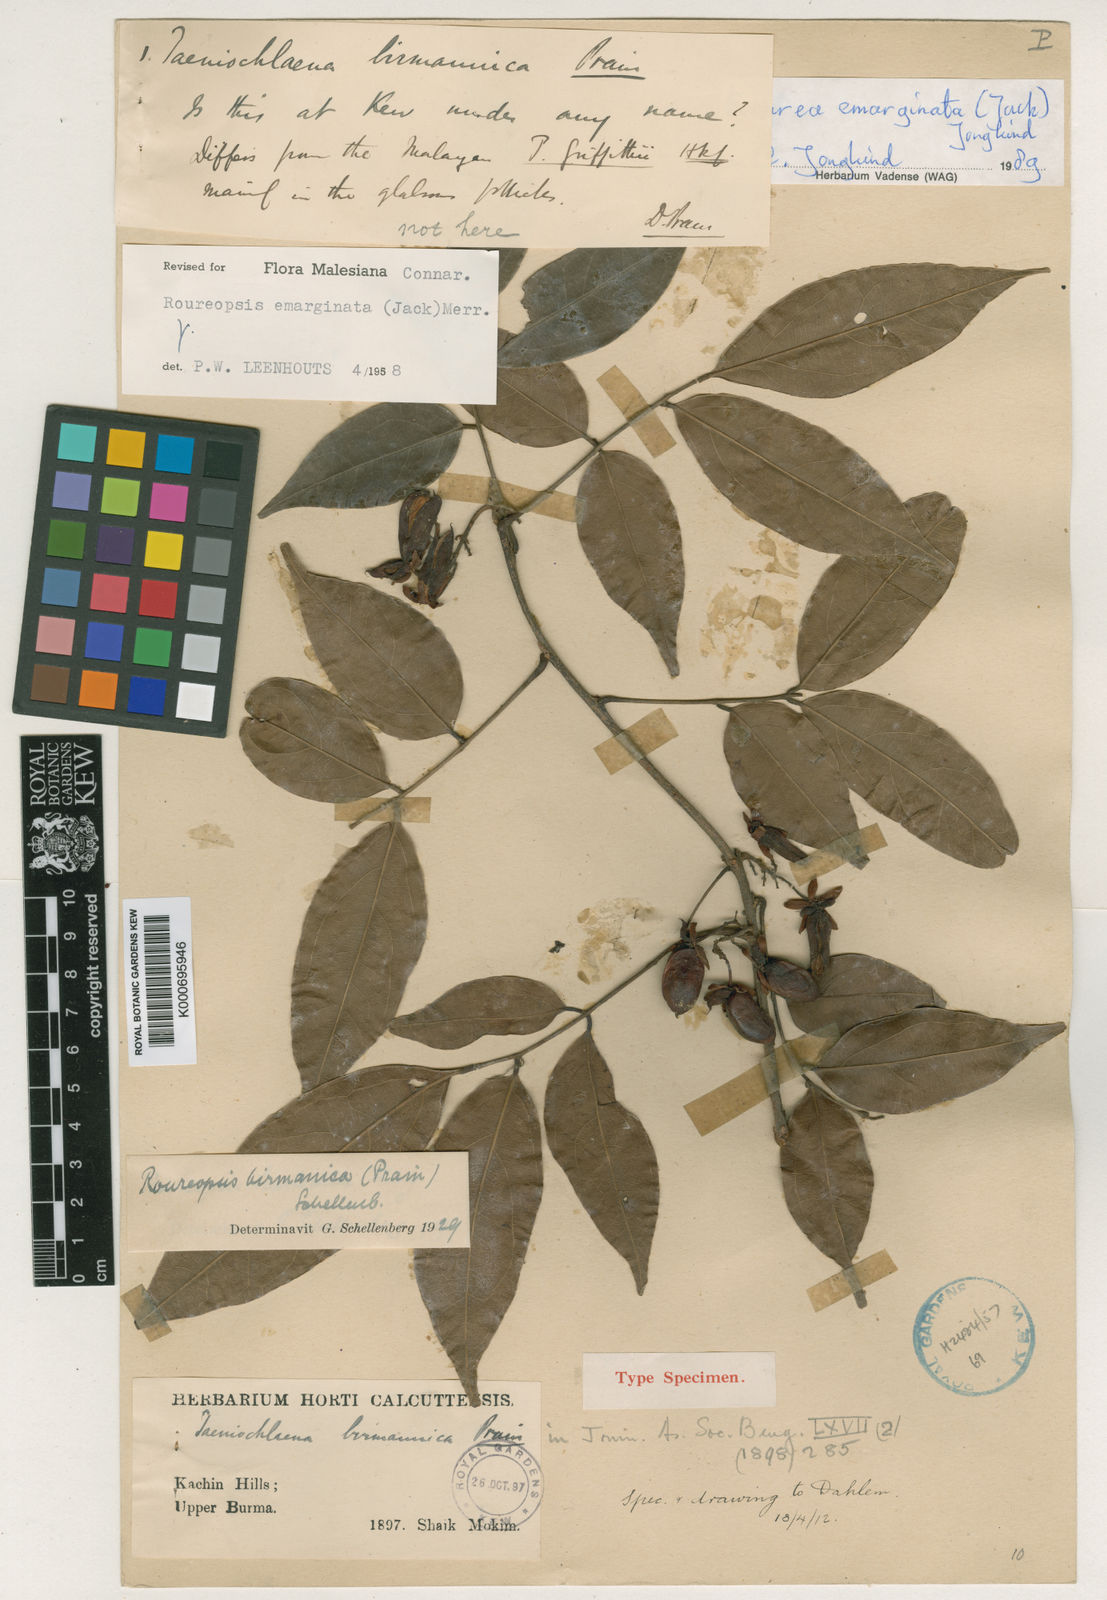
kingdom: Plantae
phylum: Tracheophyta
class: Magnoliopsida
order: Oxalidales
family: Connaraceae
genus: Rourea
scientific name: Rourea emarginata
